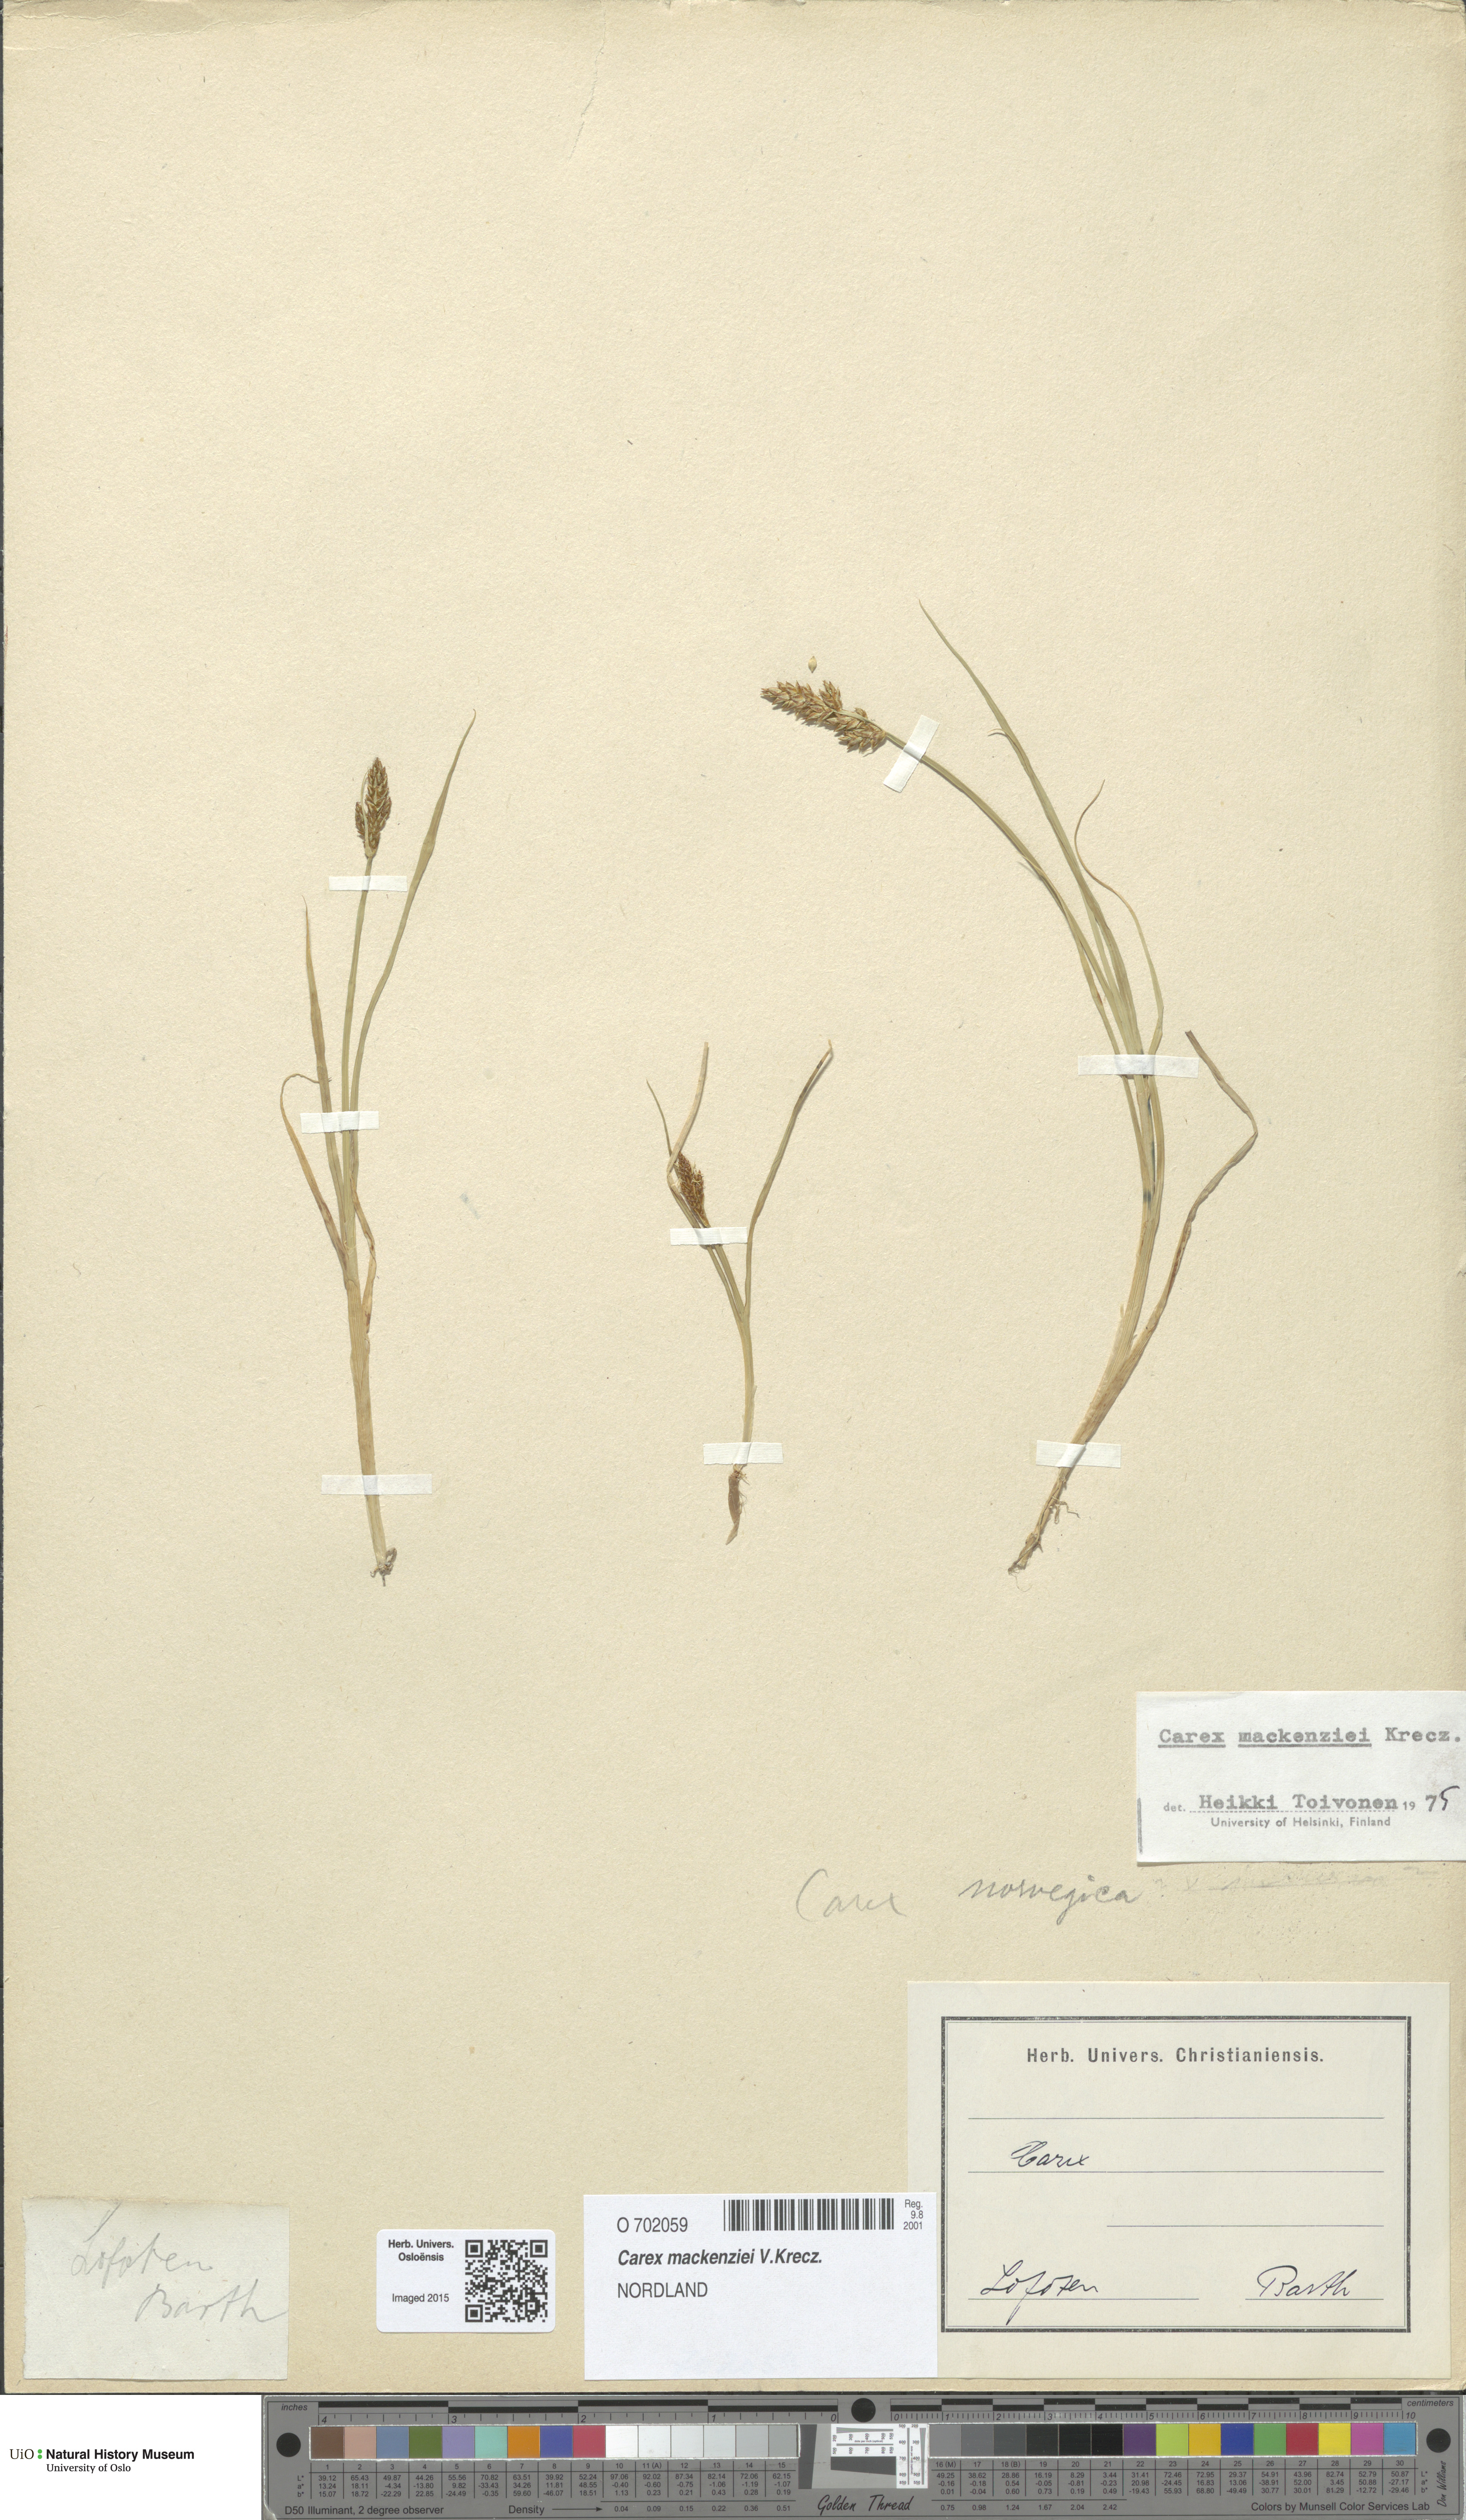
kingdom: Plantae
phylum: Tracheophyta
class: Liliopsida
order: Poales
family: Cyperaceae
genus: Carex
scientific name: Carex mackenziei
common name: Mackenzie's sedge
